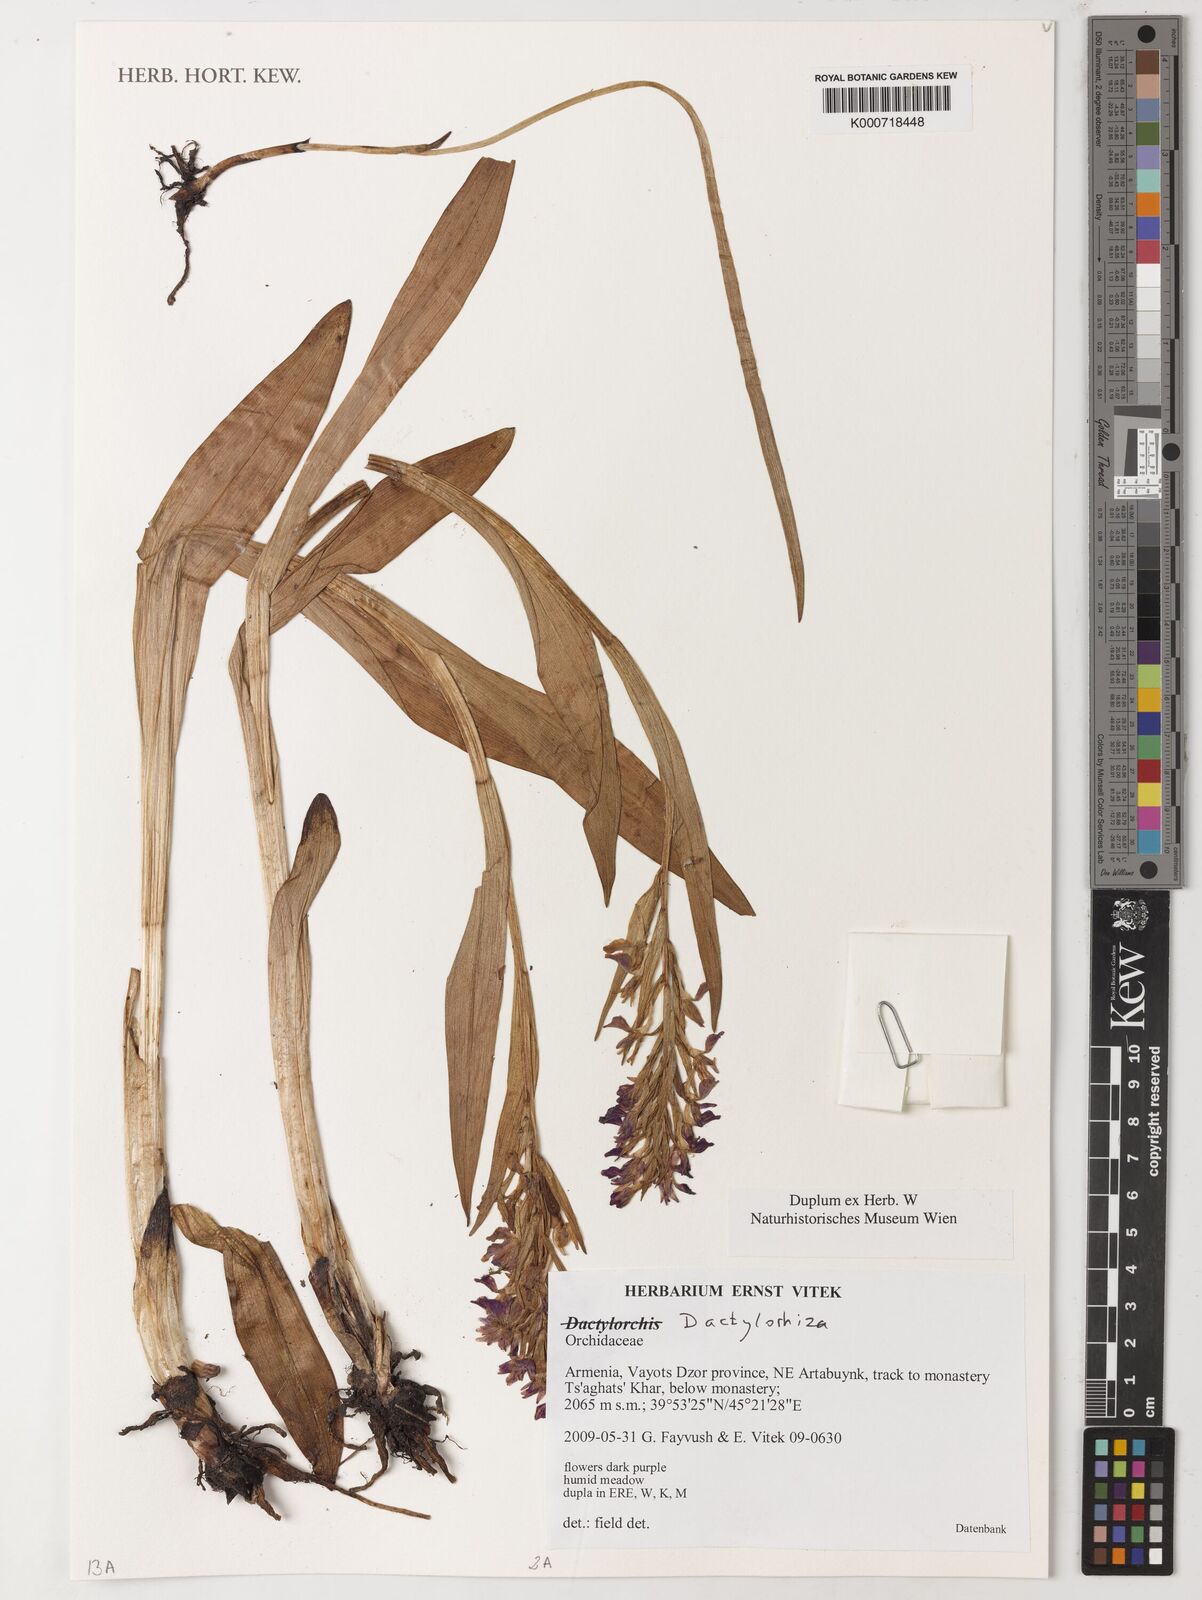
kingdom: Plantae
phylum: Tracheophyta
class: Liliopsida
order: Asparagales
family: Orchidaceae
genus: Dactylorhiza
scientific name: Dactylorhiza
